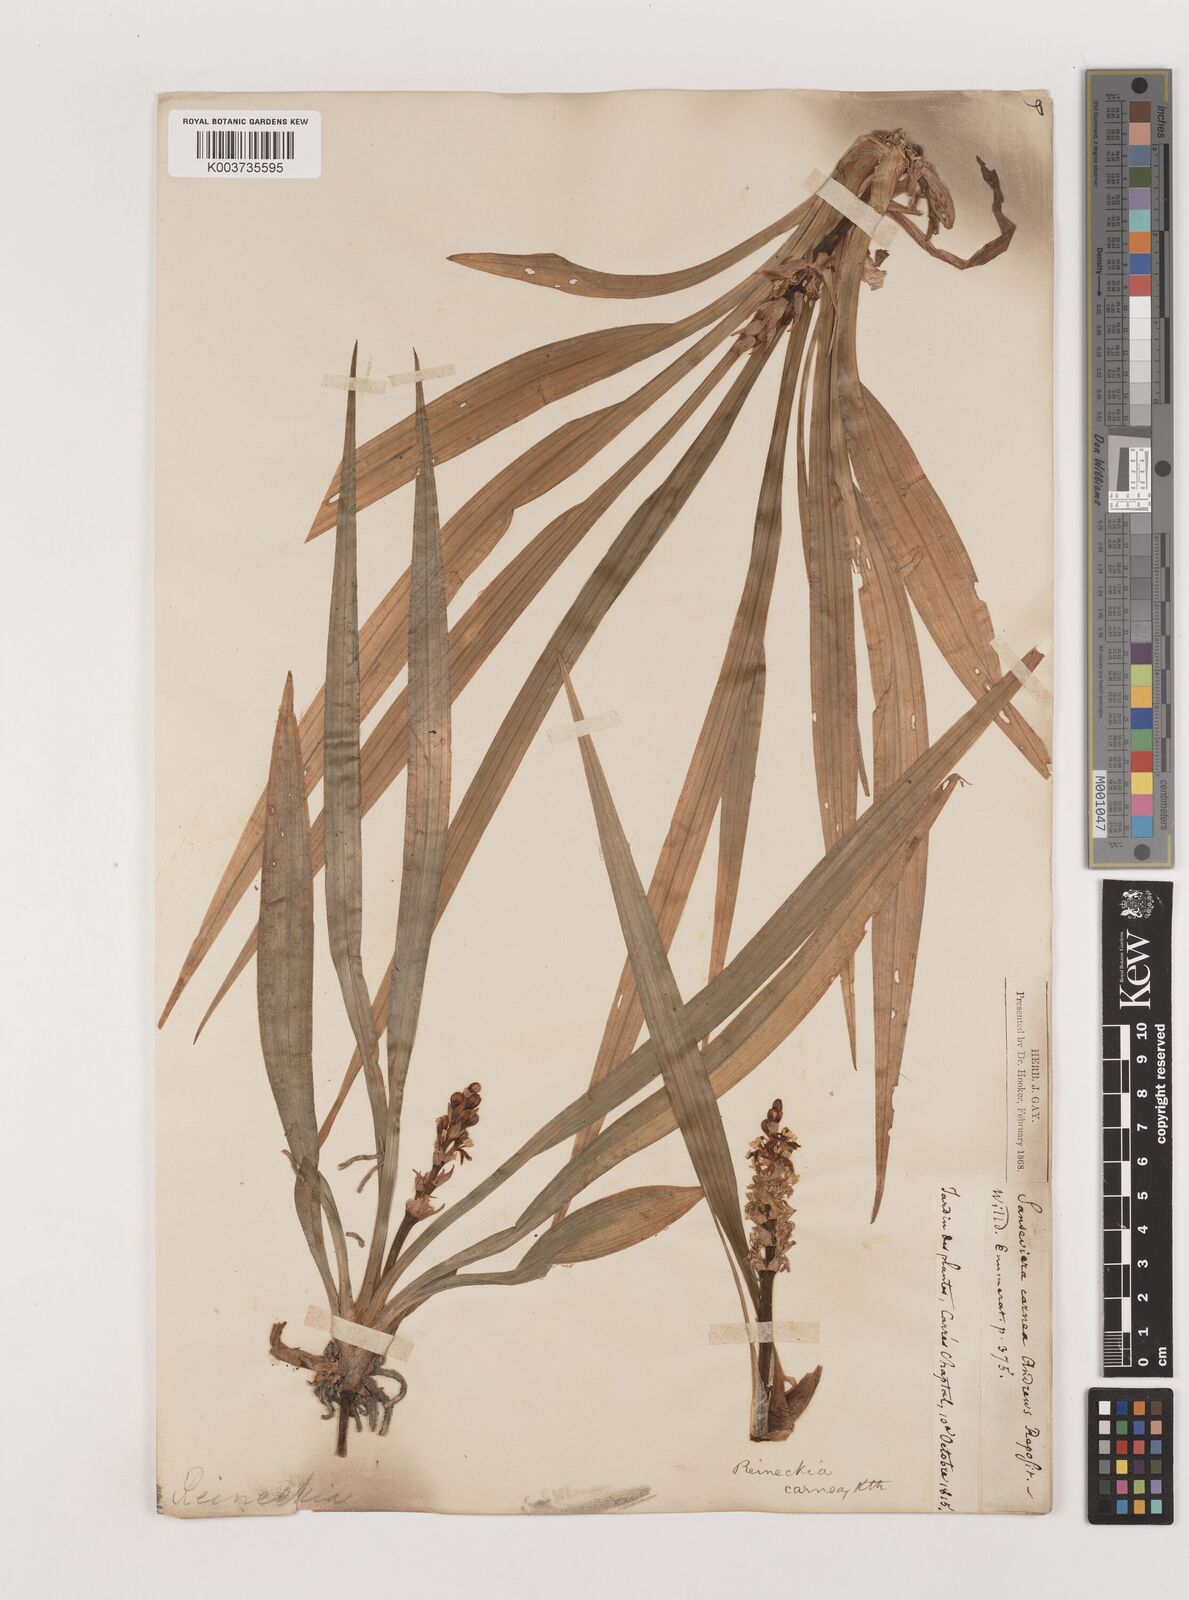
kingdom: Plantae
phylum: Tracheophyta
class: Liliopsida
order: Asparagales
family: Asparagaceae
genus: Reineckea
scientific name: Reineckea carnea
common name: Reineckea
